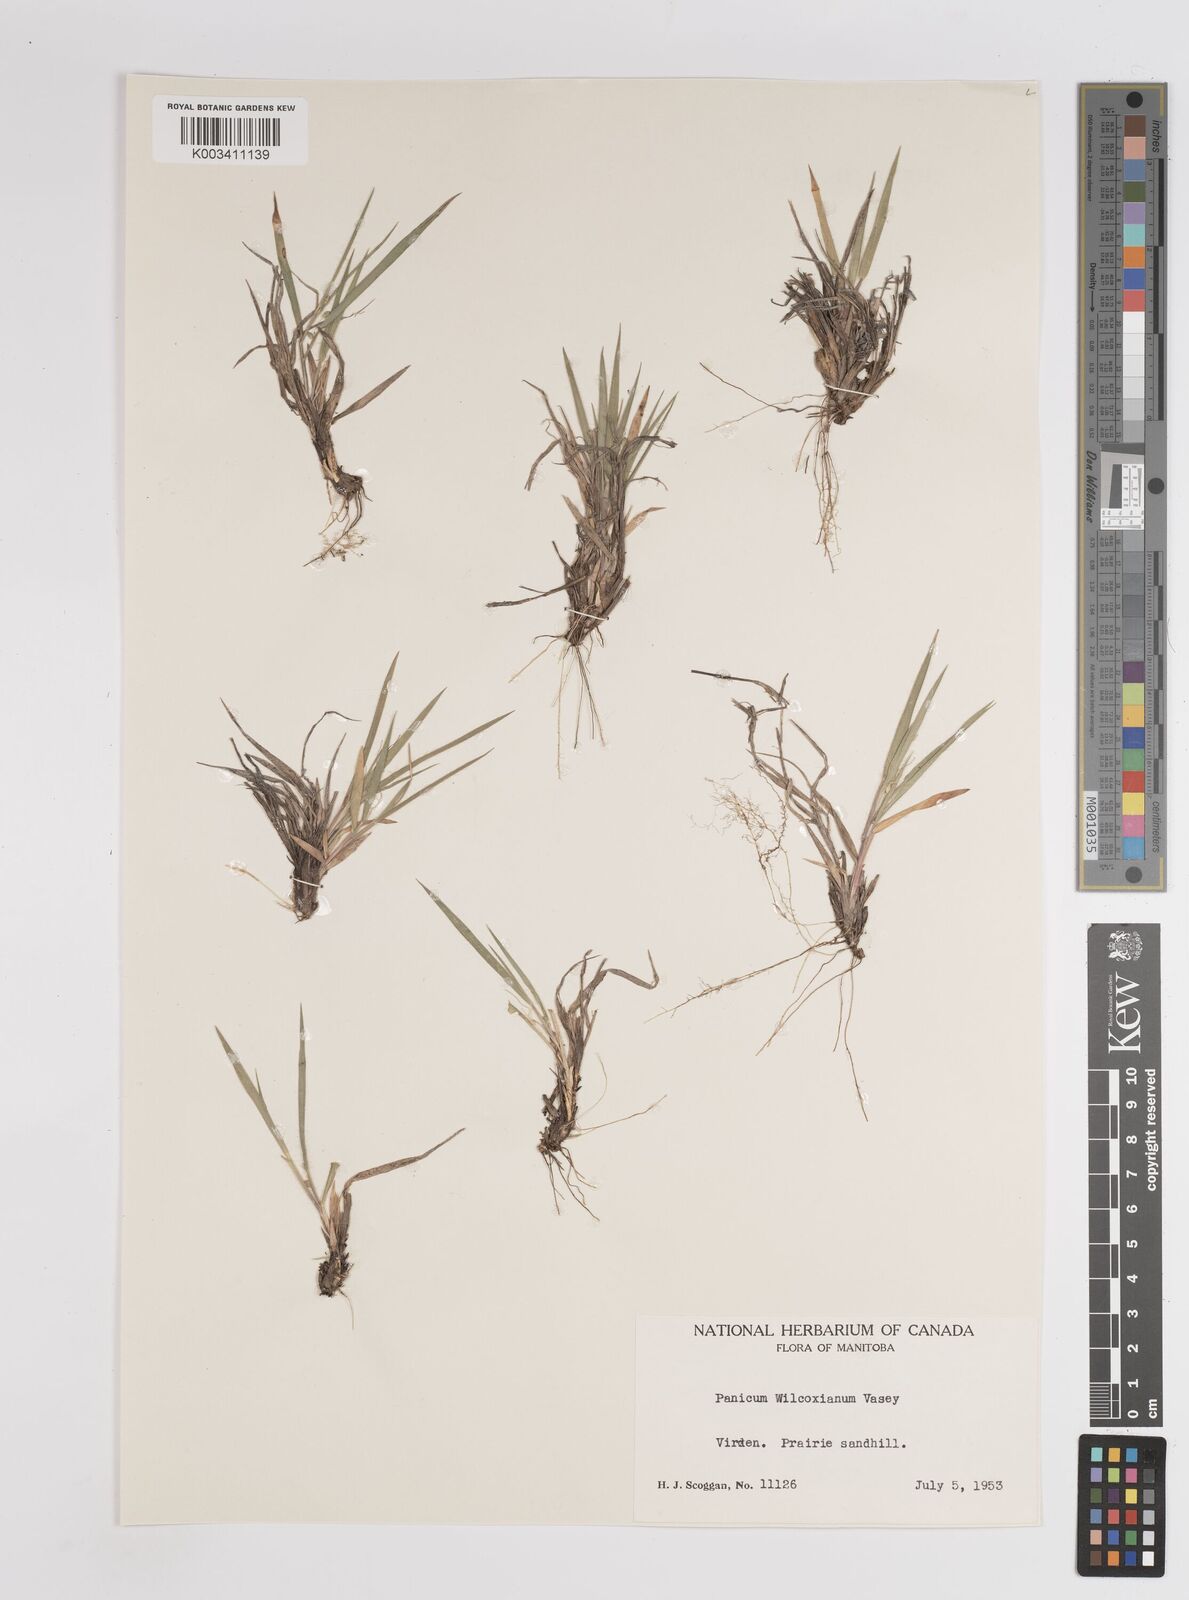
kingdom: Plantae
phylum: Tracheophyta
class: Liliopsida
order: Poales
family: Poaceae
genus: Dichanthelium
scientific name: Dichanthelium wilcoxianum
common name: Wilcox's panicgrass
